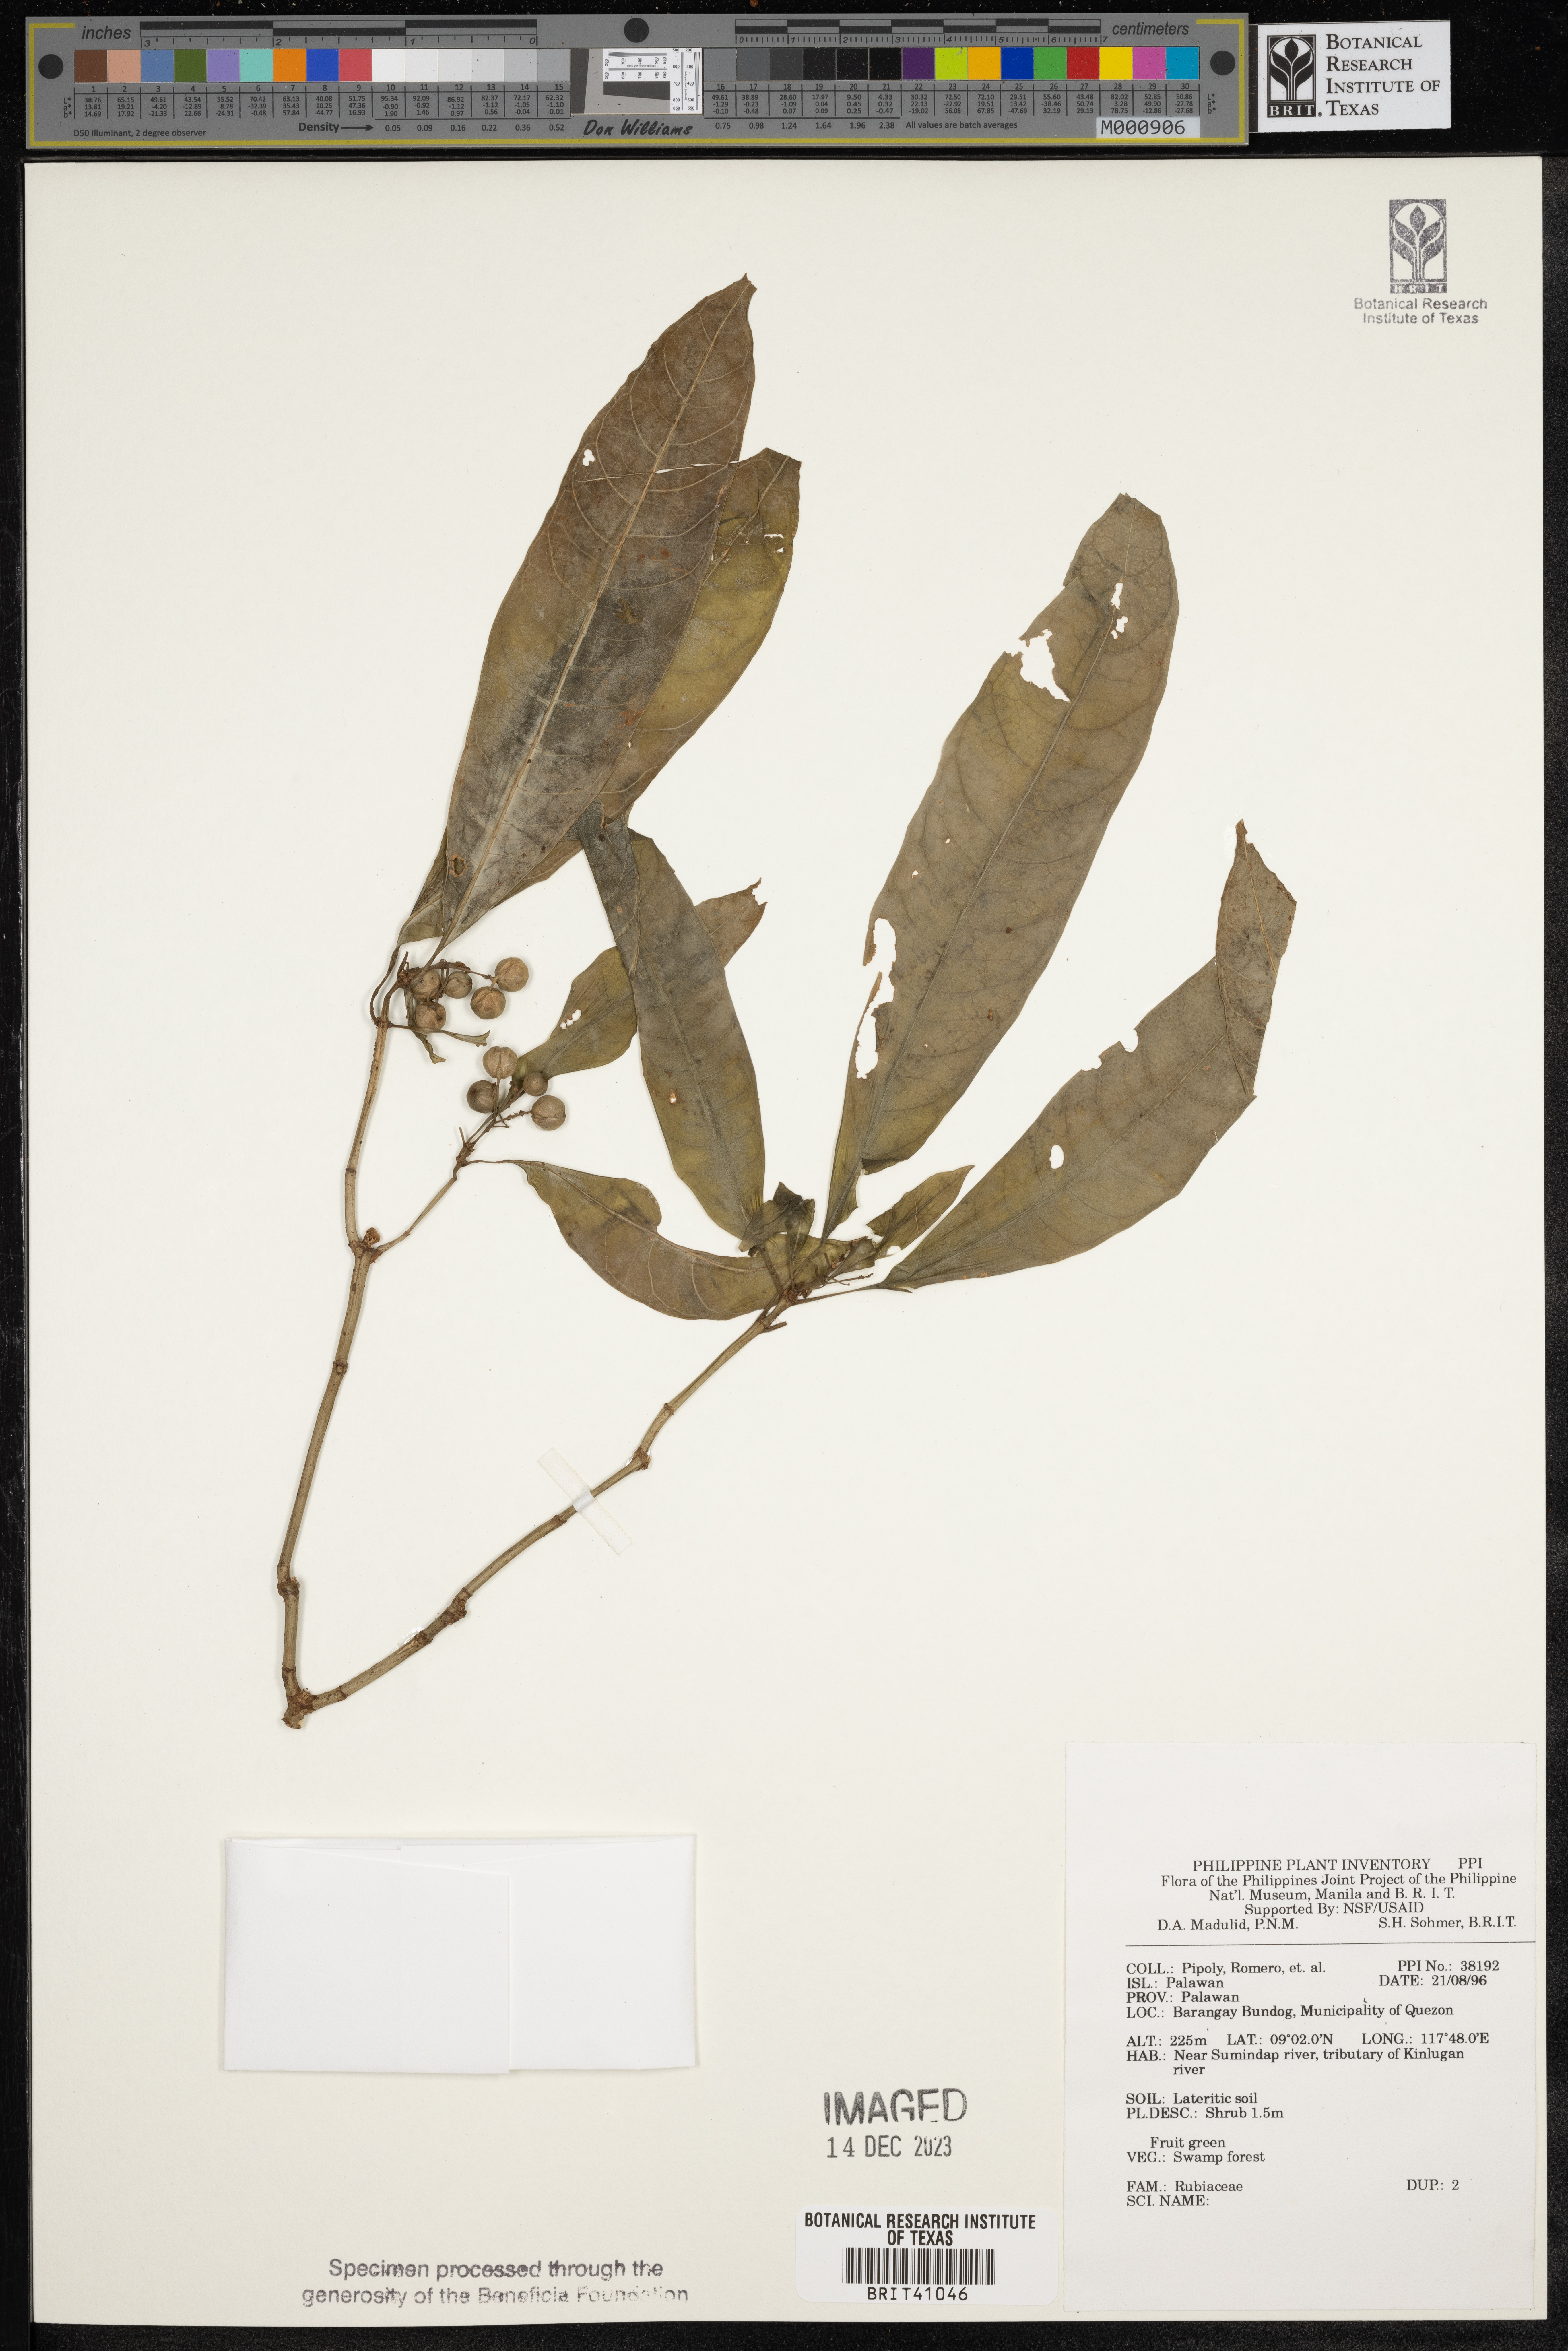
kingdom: Plantae
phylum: Tracheophyta
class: Magnoliopsida
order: Gentianales
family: Rubiaceae
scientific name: Rubiaceae
